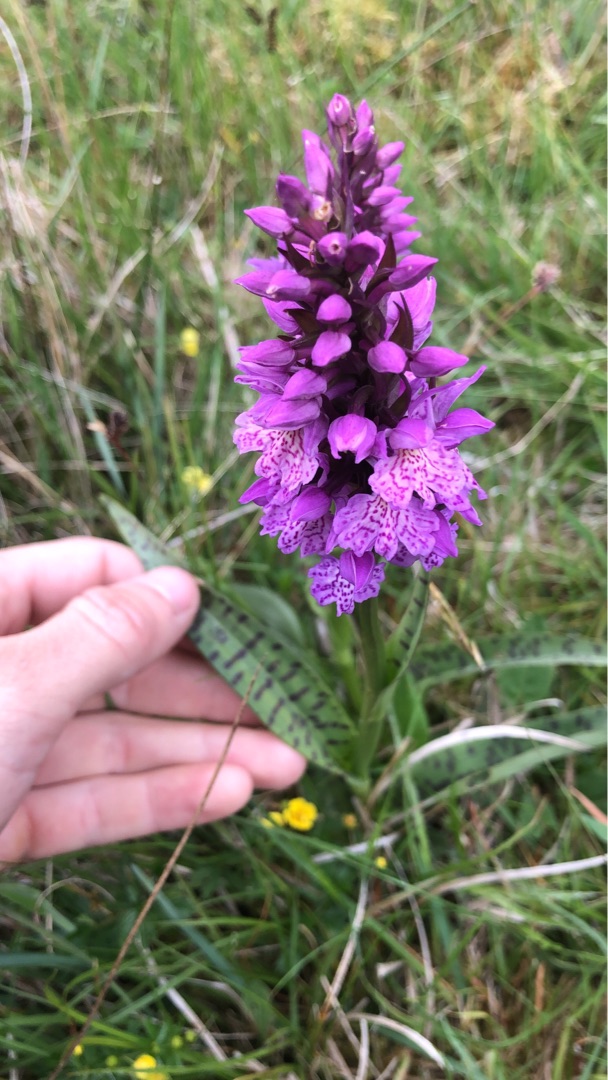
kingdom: Plantae
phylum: Tracheophyta
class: Liliopsida
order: Asparagales
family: Orchidaceae
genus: Dactylorhiza
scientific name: Dactylorhiza majalis
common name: Maj-gøgeurt
